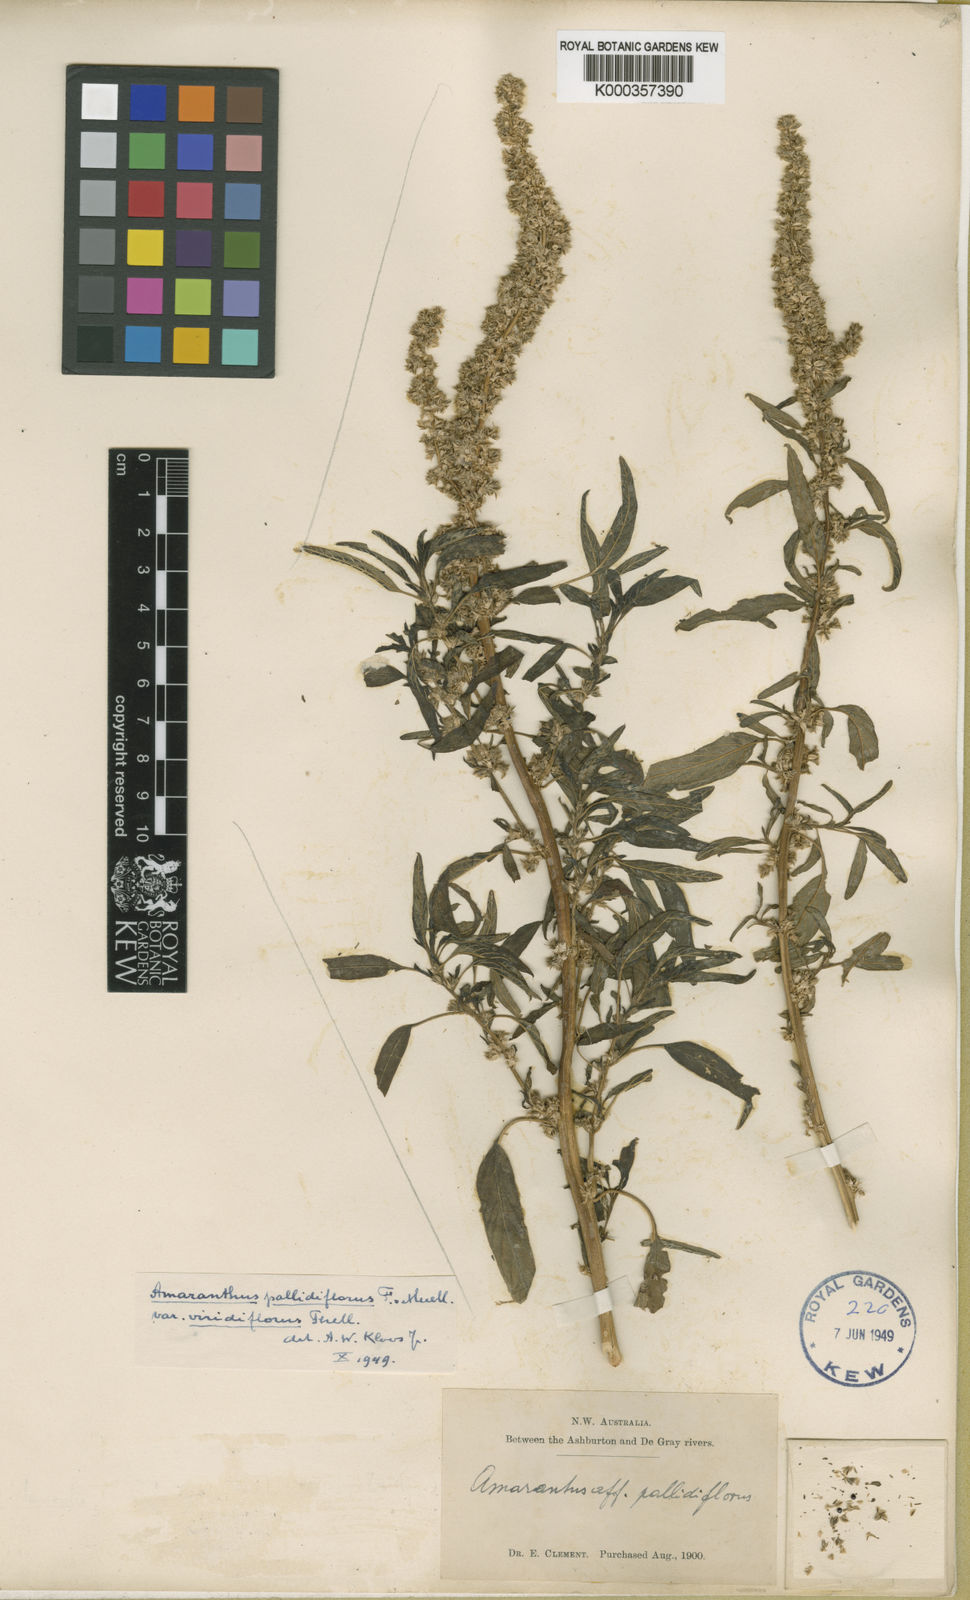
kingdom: Plantae
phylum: Tracheophyta
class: Magnoliopsida
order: Caryophyllales
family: Amaranthaceae
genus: Amaranthus
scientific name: Amaranthus undulatus
